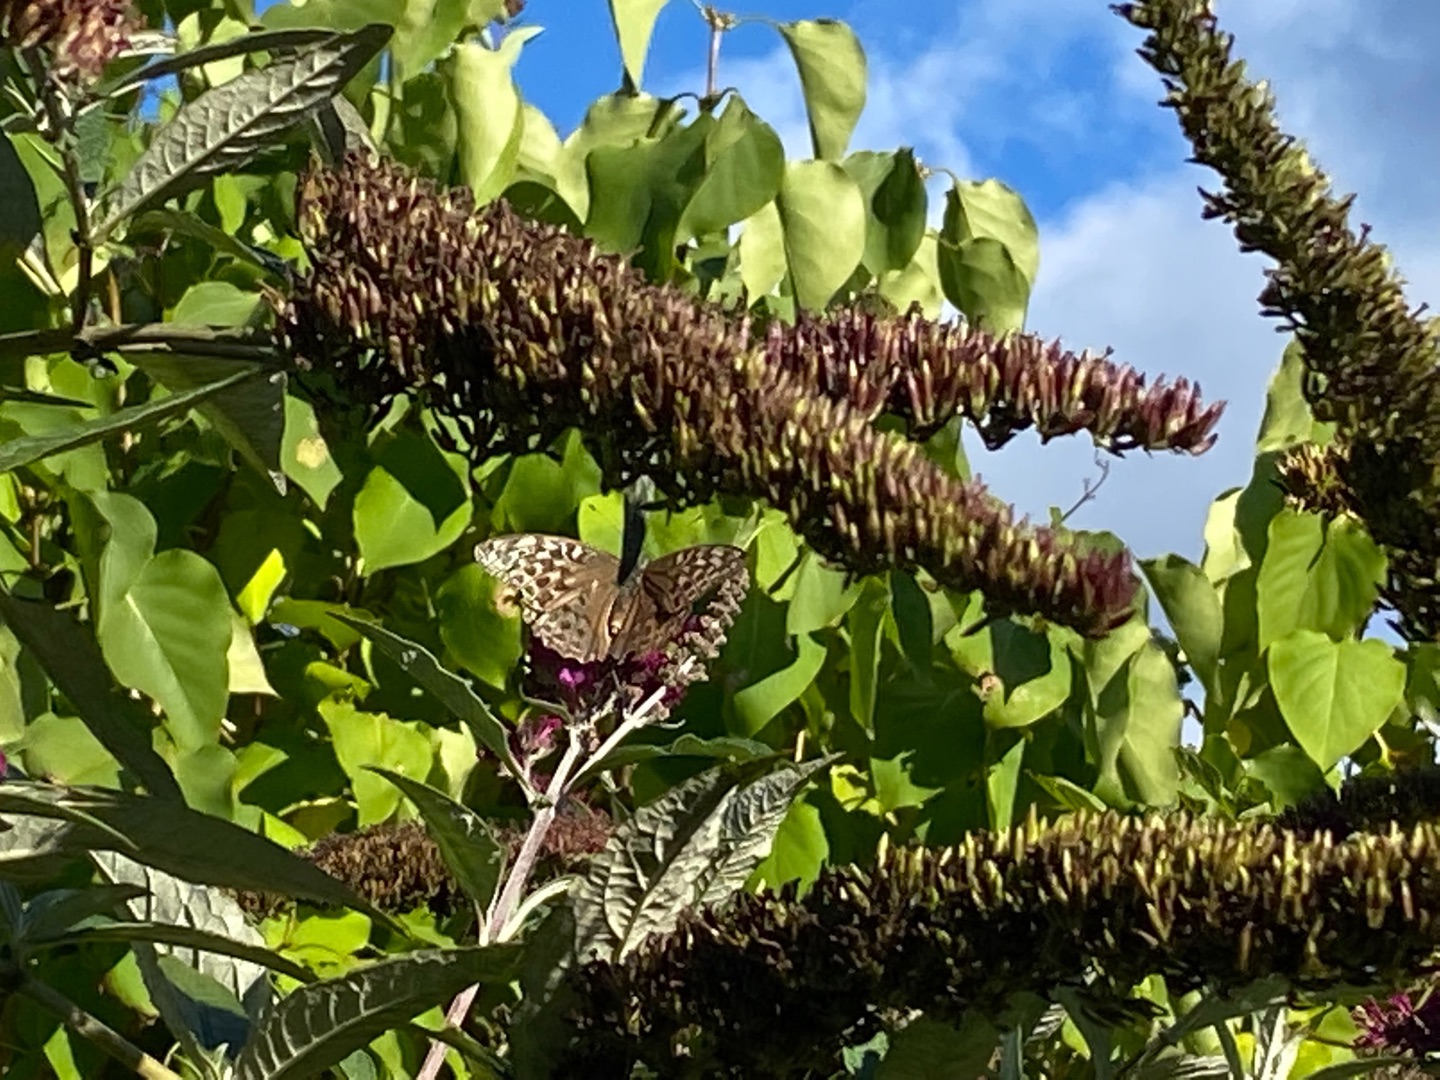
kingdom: Animalia
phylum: Arthropoda
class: Insecta
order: Lepidoptera
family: Nymphalidae
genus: Argynnis
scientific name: Argynnis paphia
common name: Kejserkåbe
